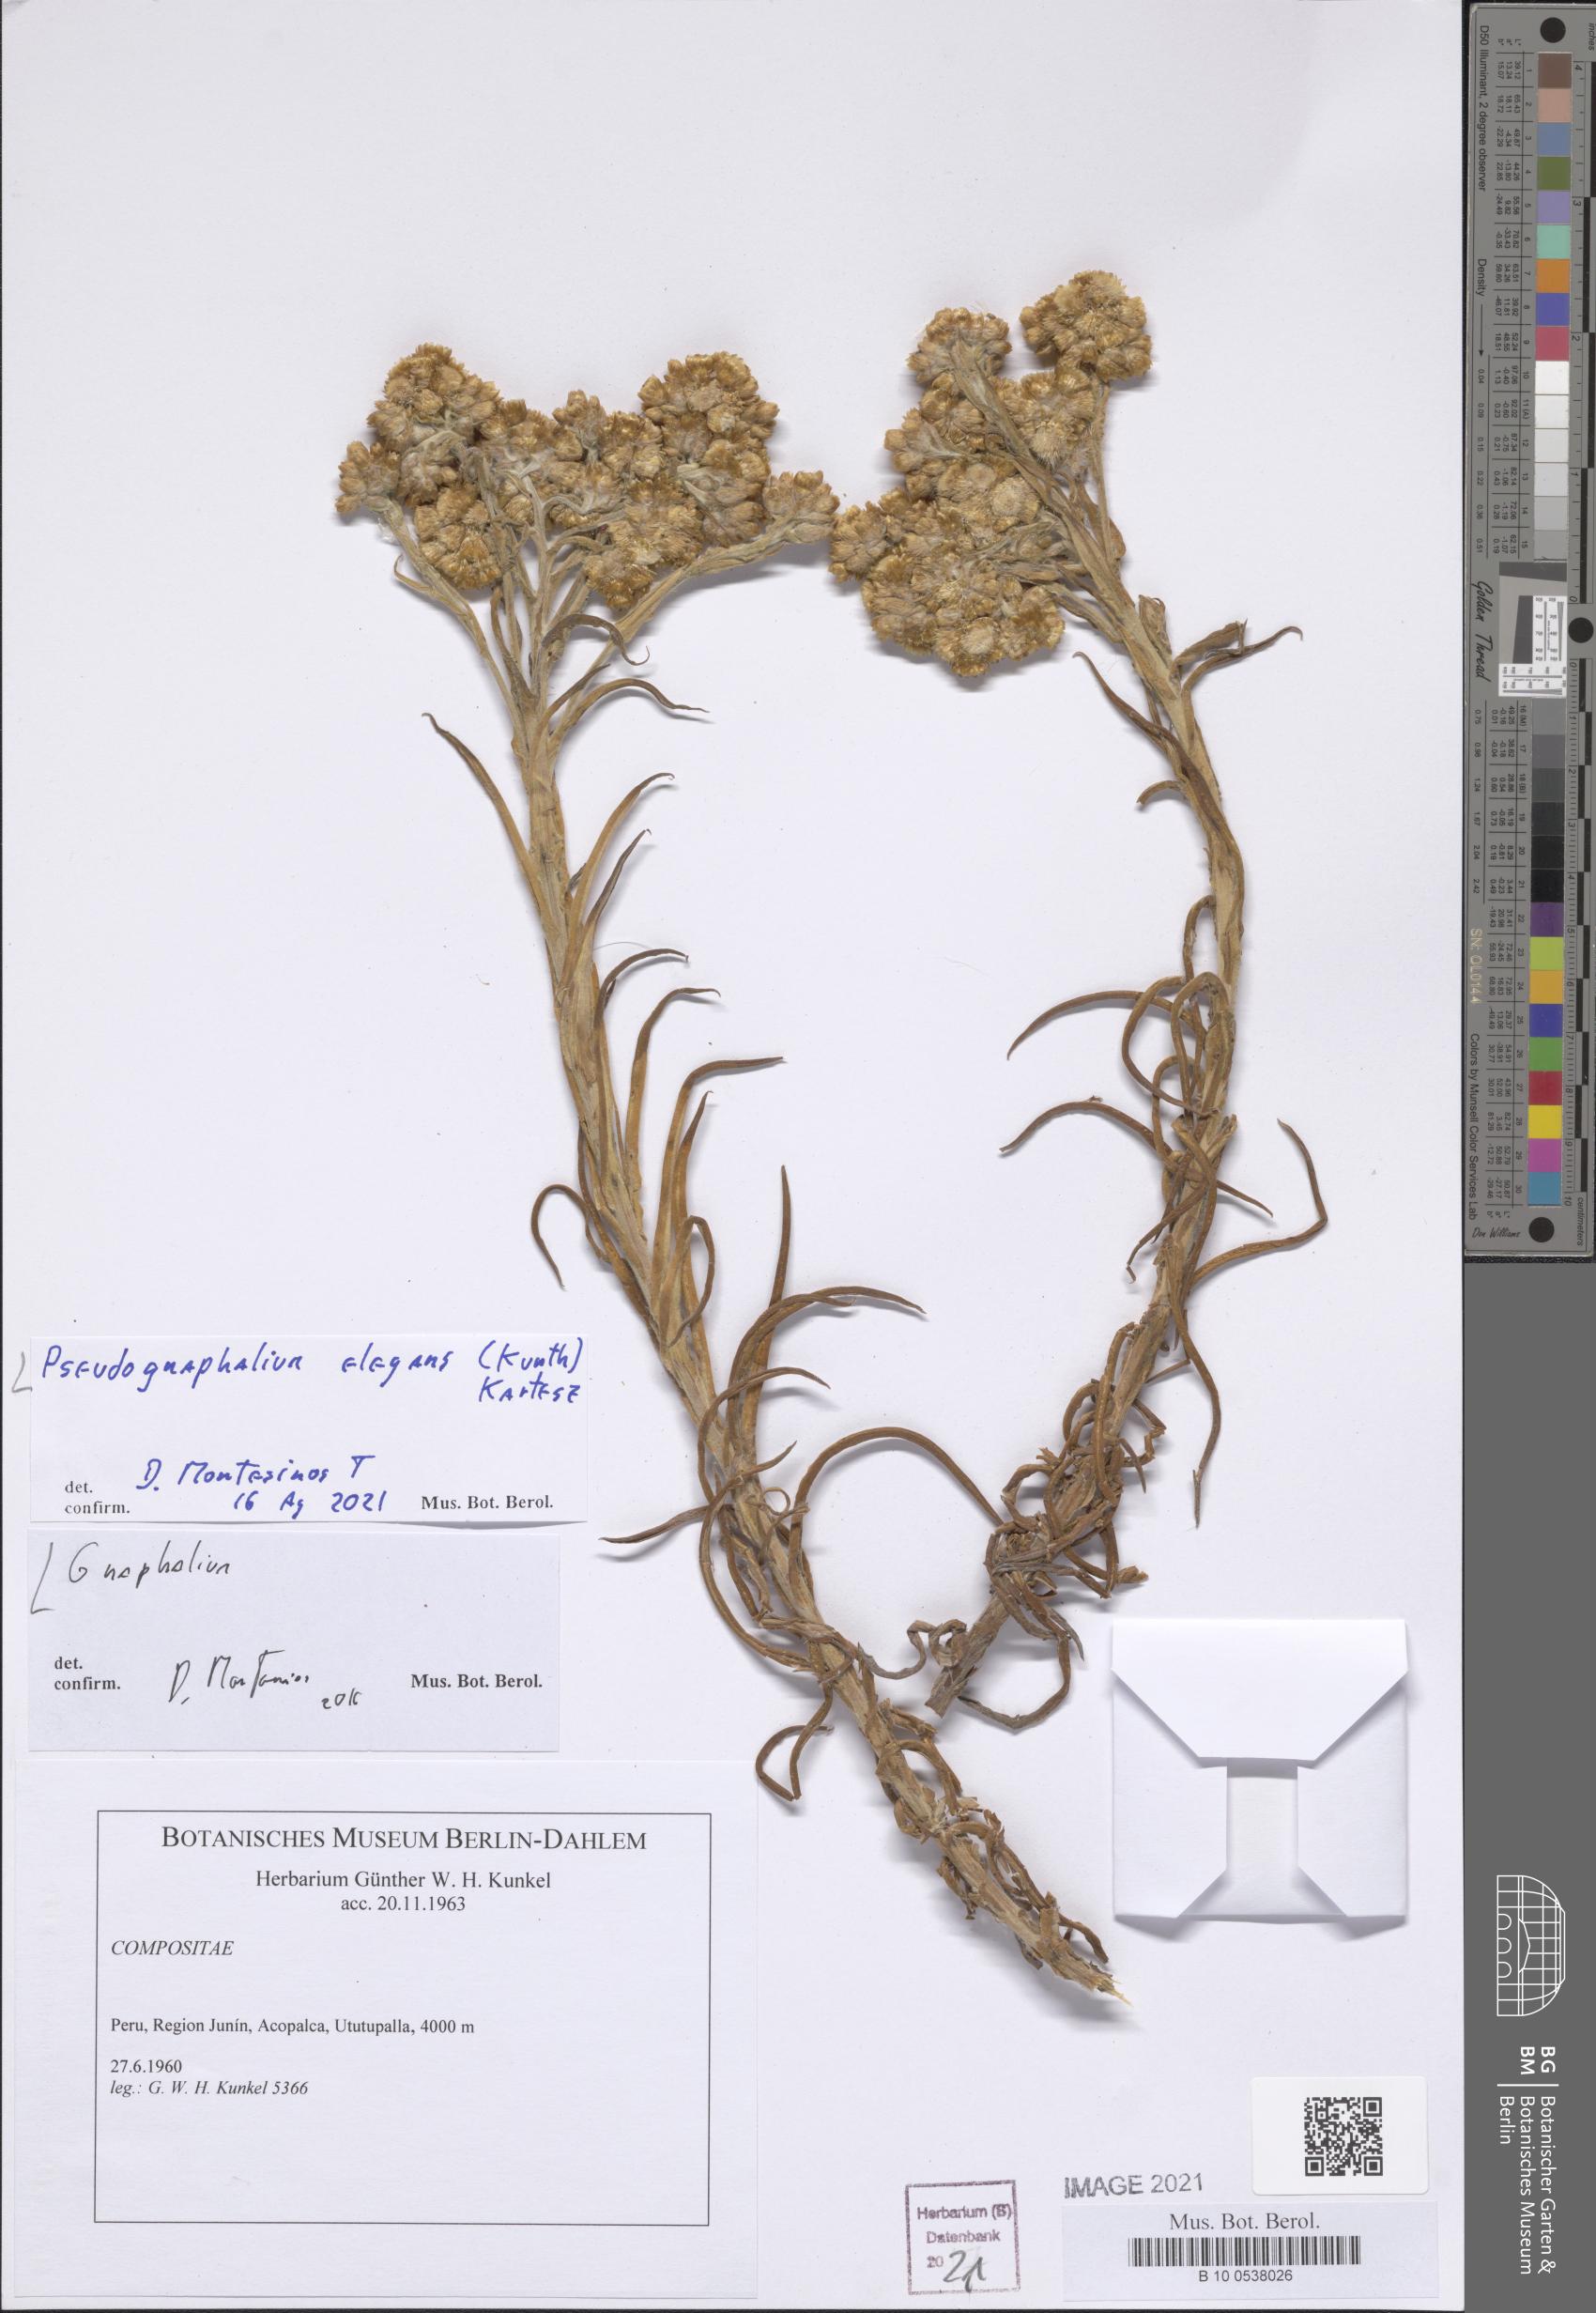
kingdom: Plantae
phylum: Tracheophyta
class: Magnoliopsida
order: Asterales
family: Asteraceae
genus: Pseudognaphalium
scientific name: Pseudognaphalium domingense
